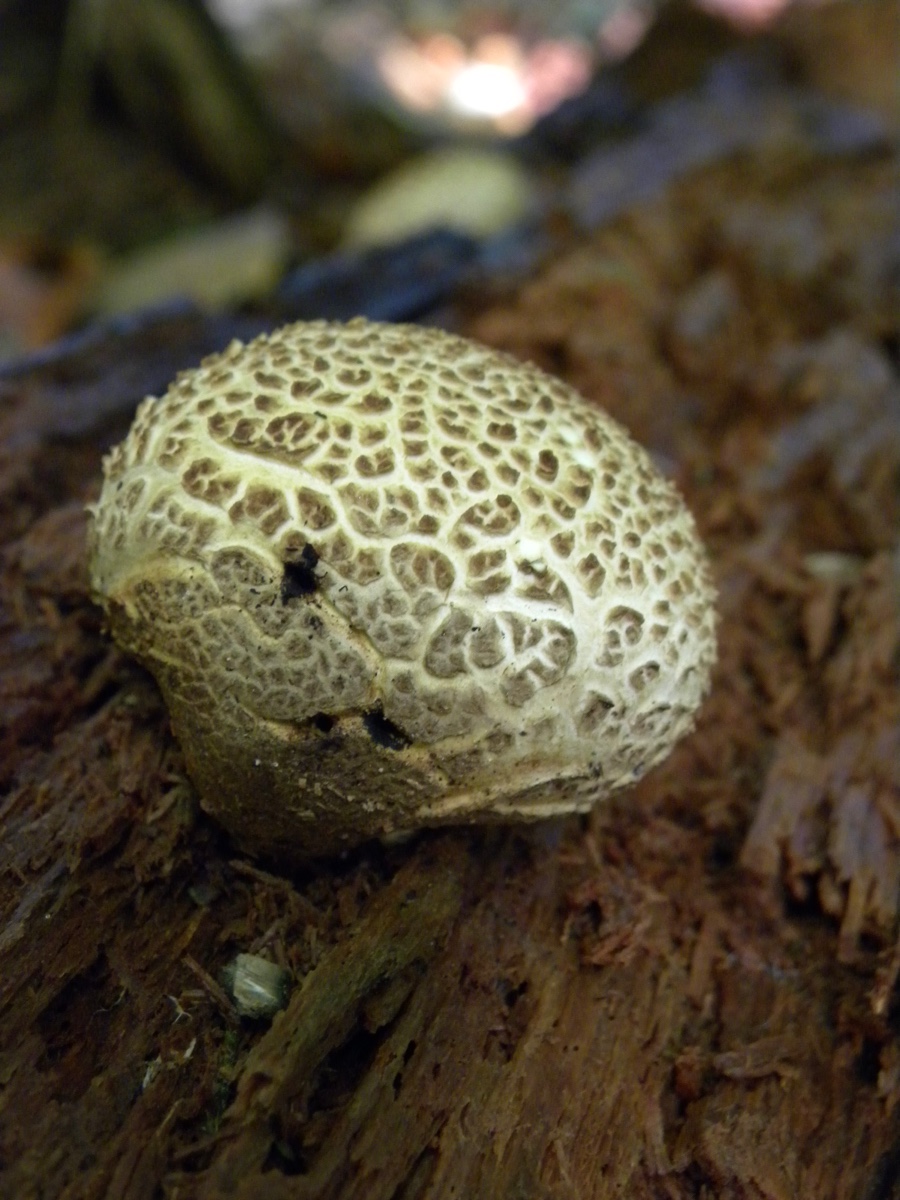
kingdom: Fungi
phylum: Basidiomycota
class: Agaricomycetes
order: Boletales
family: Sclerodermataceae
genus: Scleroderma
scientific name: Scleroderma citrinum
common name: almindelig bruskbold
